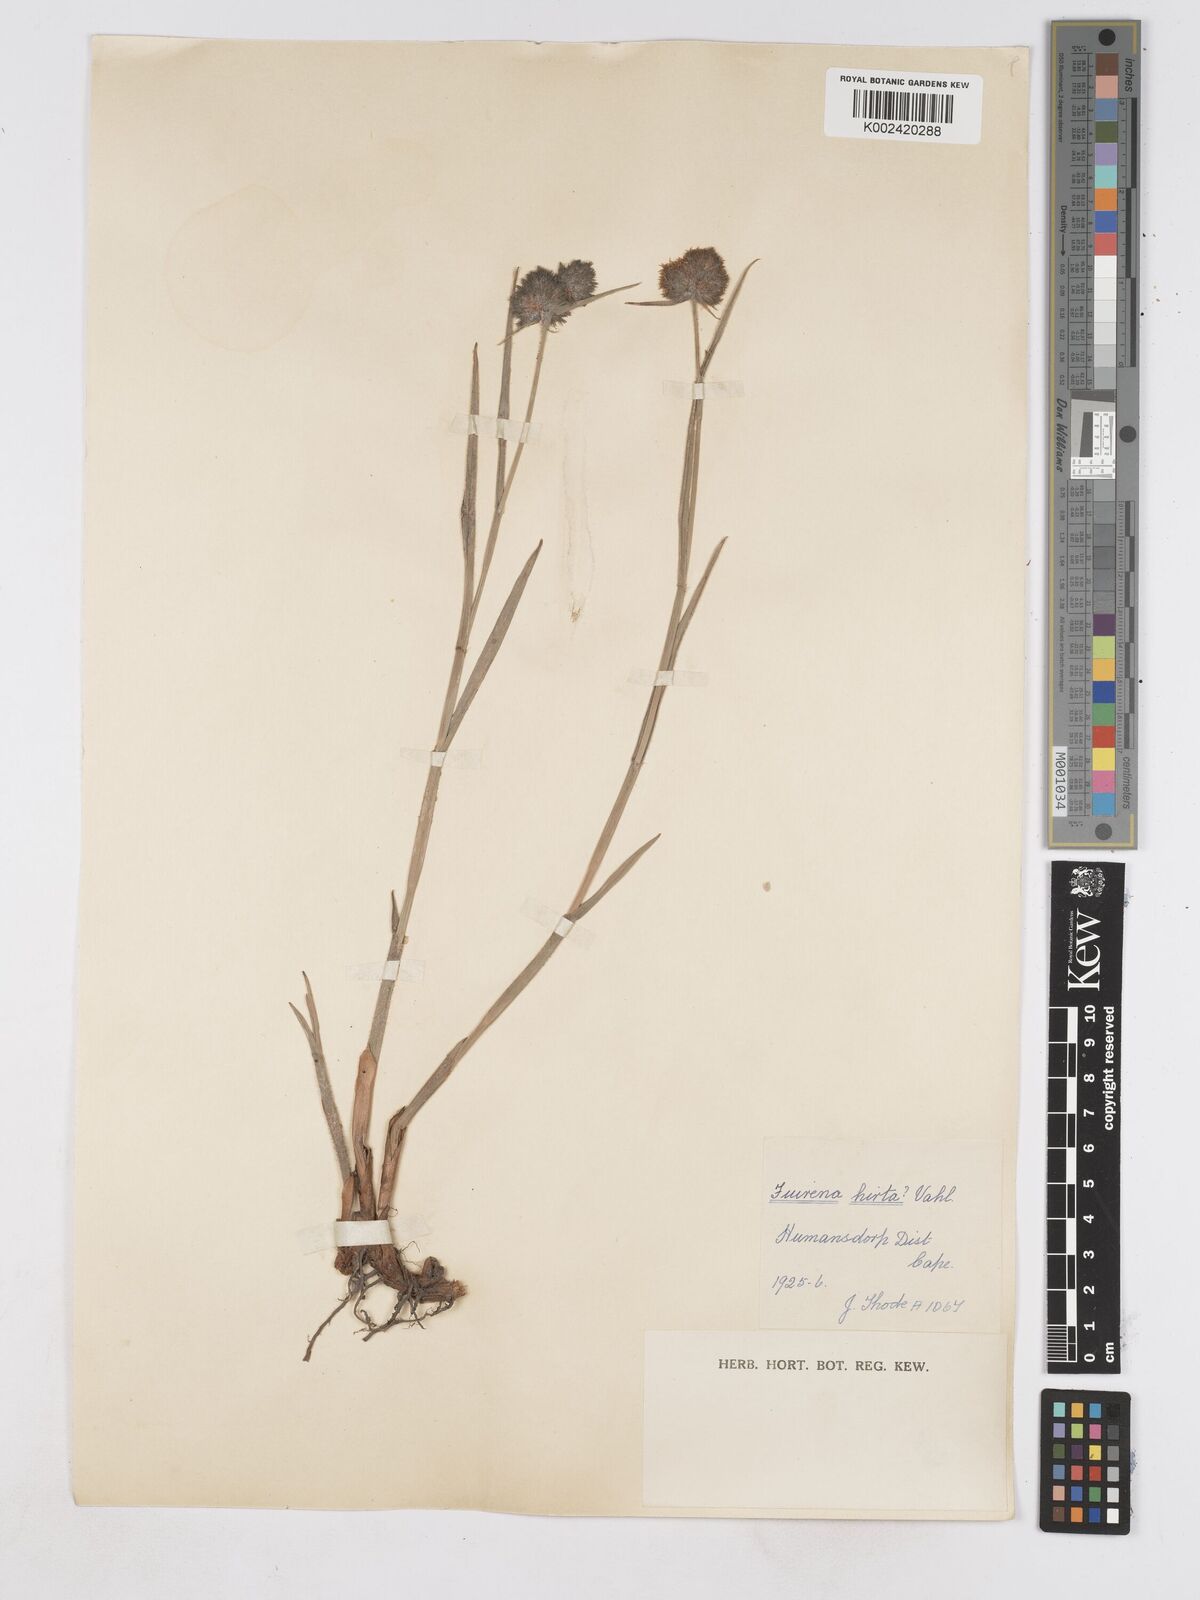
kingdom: Plantae
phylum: Tracheophyta
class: Liliopsida
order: Poales
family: Cyperaceae
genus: Fuirena
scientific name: Fuirena hirsuta
